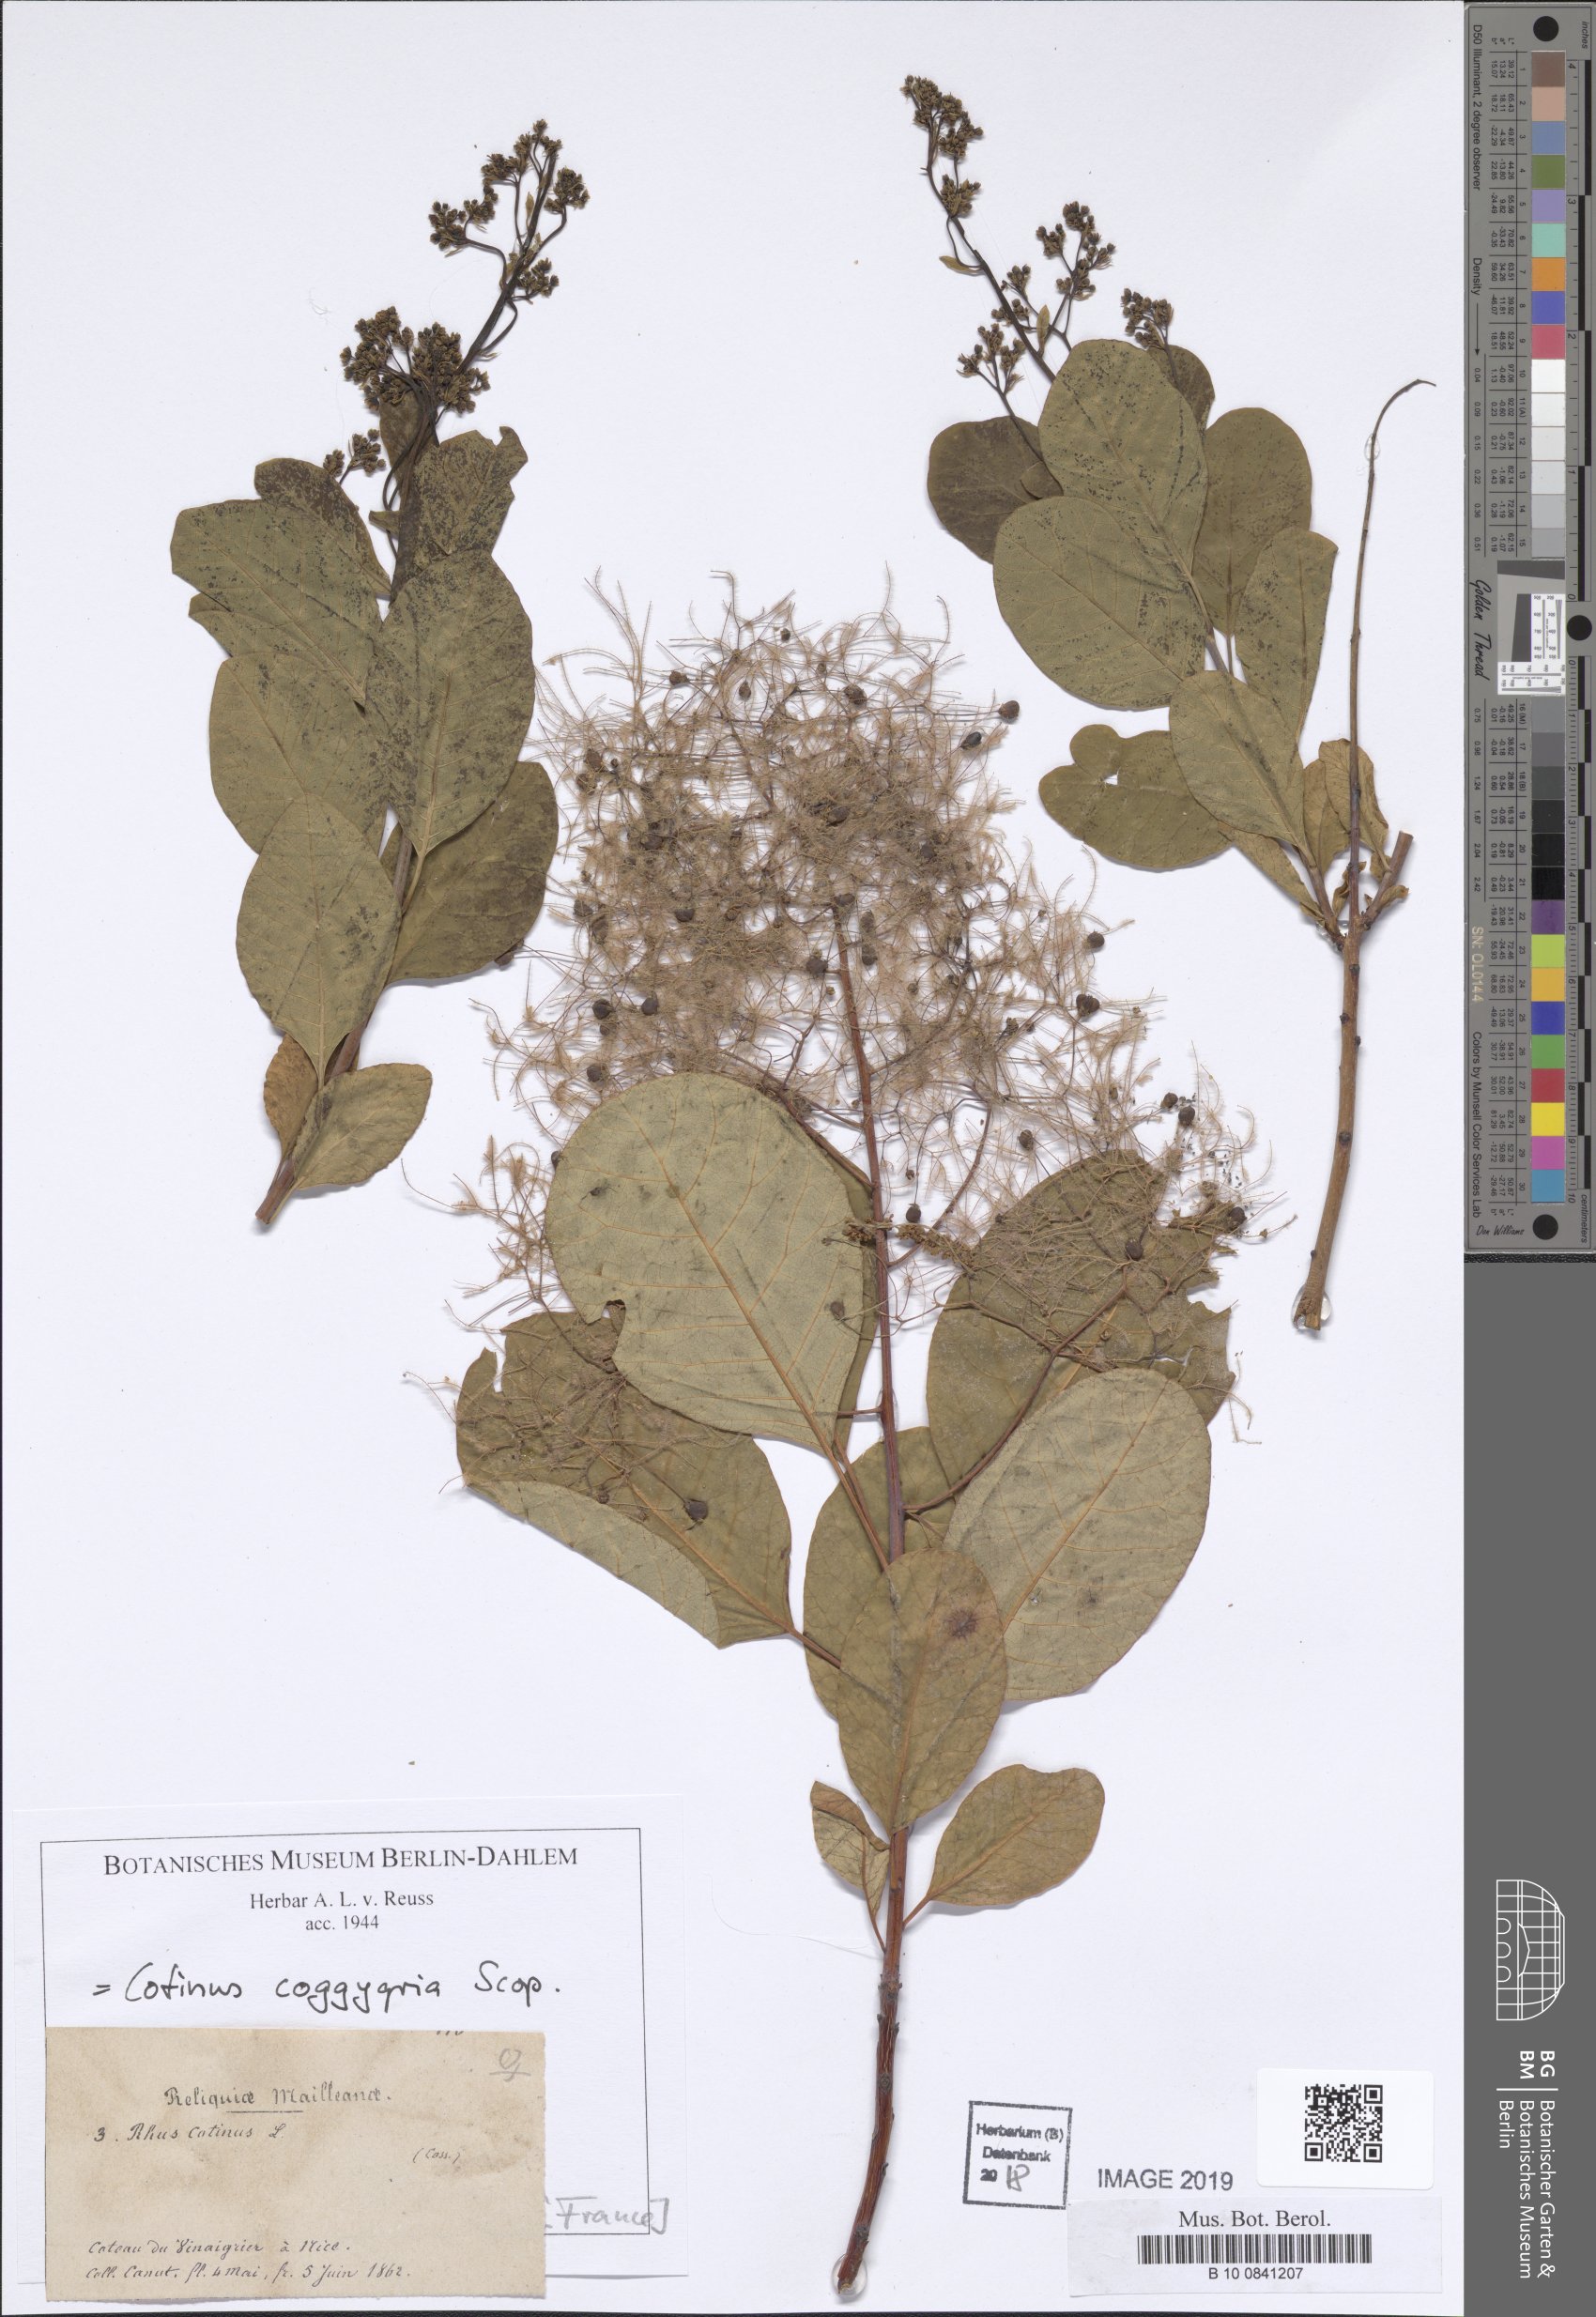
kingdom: Plantae
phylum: Tracheophyta
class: Magnoliopsida
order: Sapindales
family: Anacardiaceae
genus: Cotinus
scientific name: Cotinus coggygria
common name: Smoke-tree
